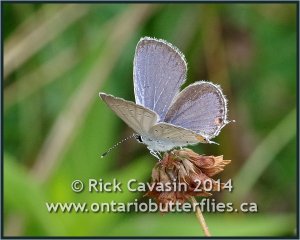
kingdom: Animalia
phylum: Arthropoda
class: Insecta
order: Lepidoptera
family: Lycaenidae
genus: Elkalyce
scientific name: Elkalyce comyntas
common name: Eastern Tailed-Blue
